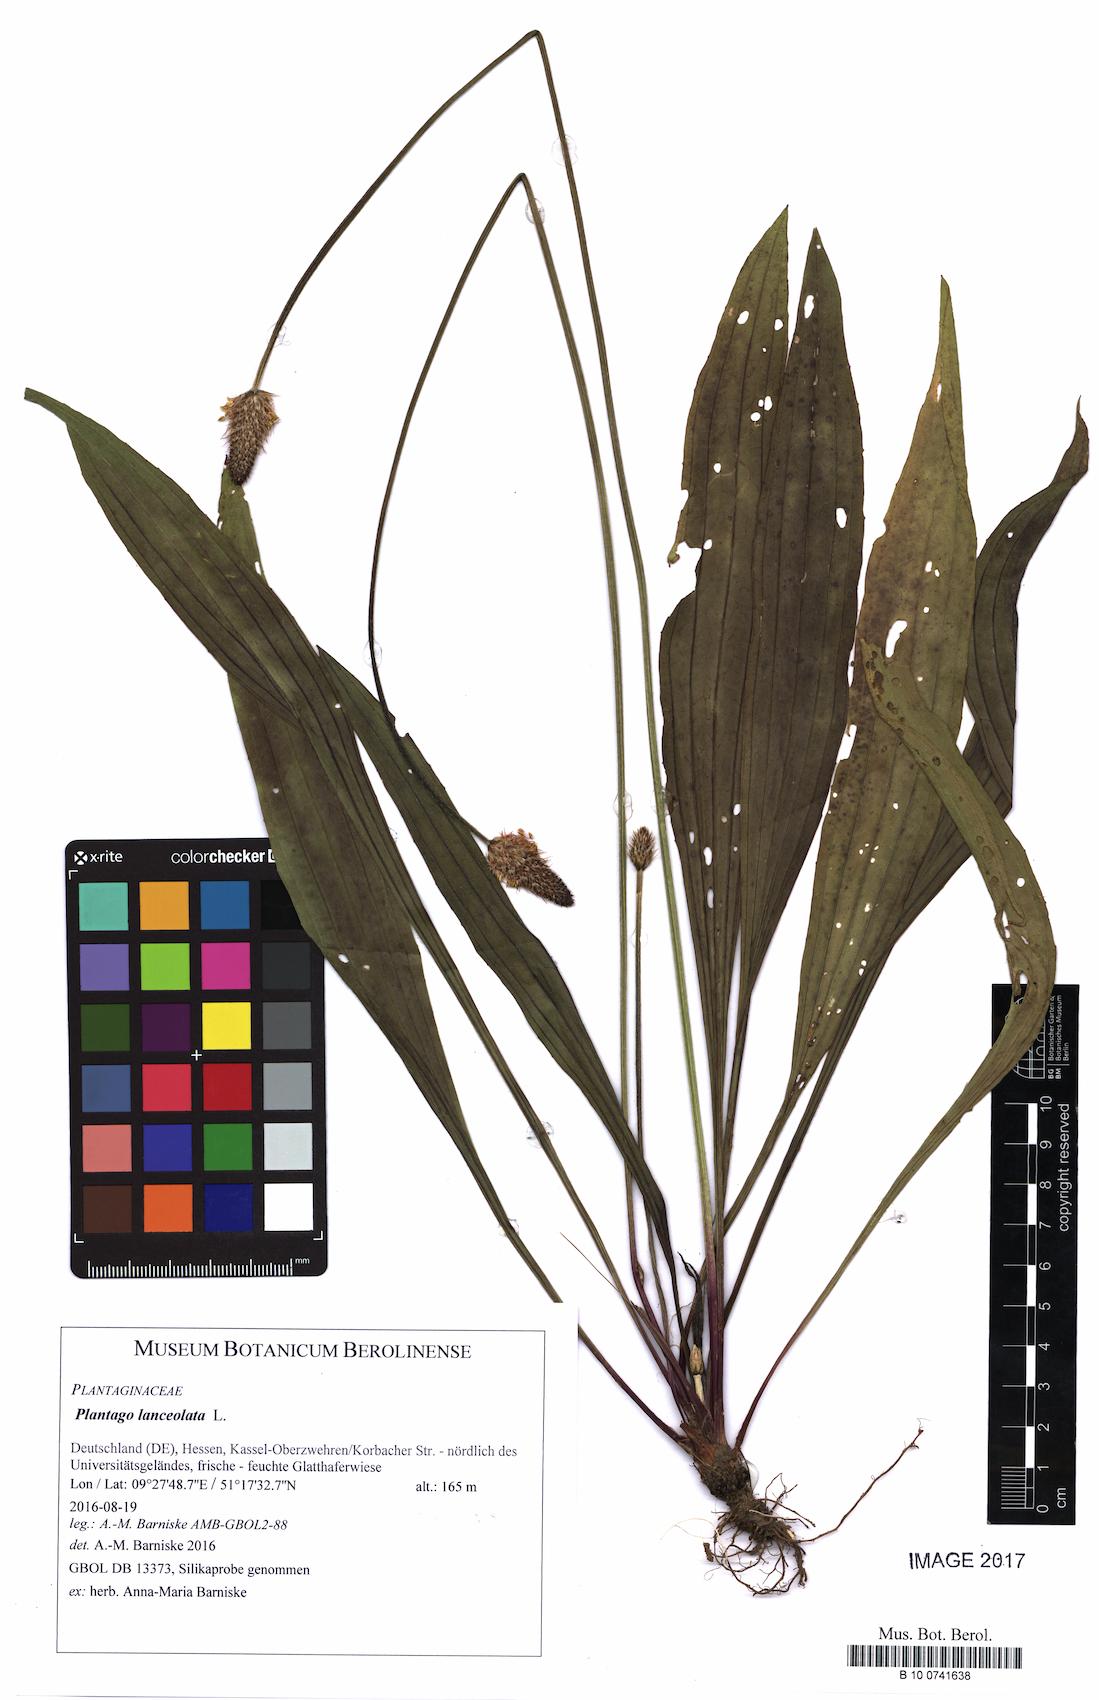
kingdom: Plantae
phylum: Tracheophyta
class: Magnoliopsida
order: Lamiales
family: Plantaginaceae
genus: Plantago
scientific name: Plantago lanceolata
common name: Ribwort plantain
